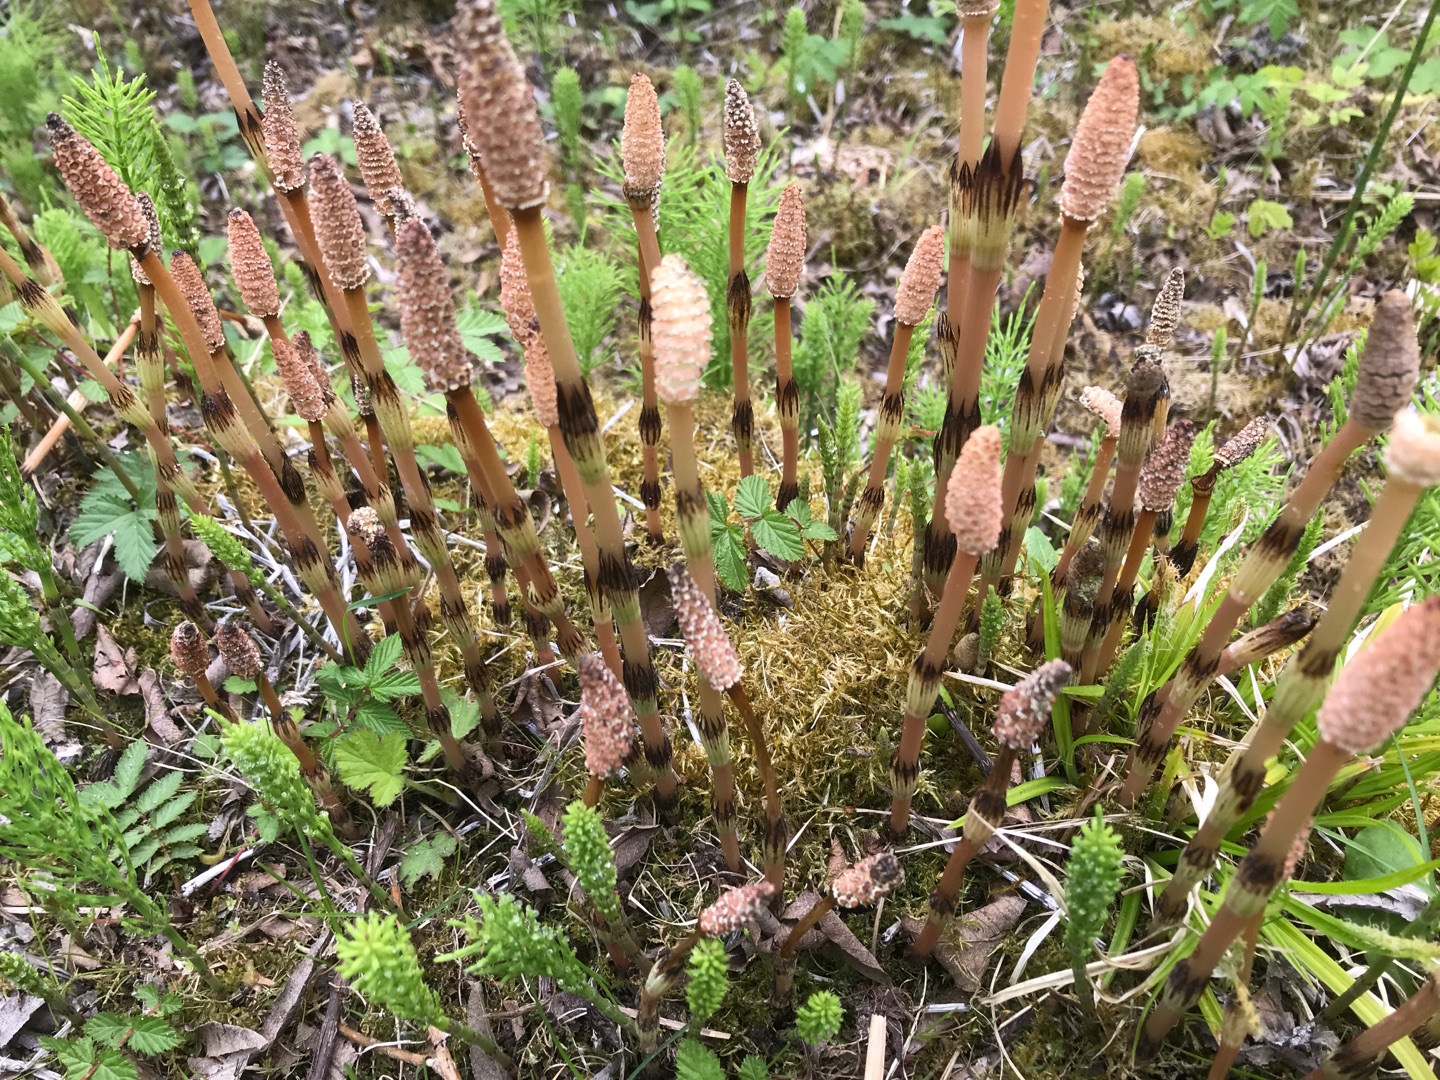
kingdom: Plantae
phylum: Tracheophyta
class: Polypodiopsida
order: Equisetales
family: Equisetaceae
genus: Equisetum
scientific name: Equisetum arvense
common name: Ager-padderok
